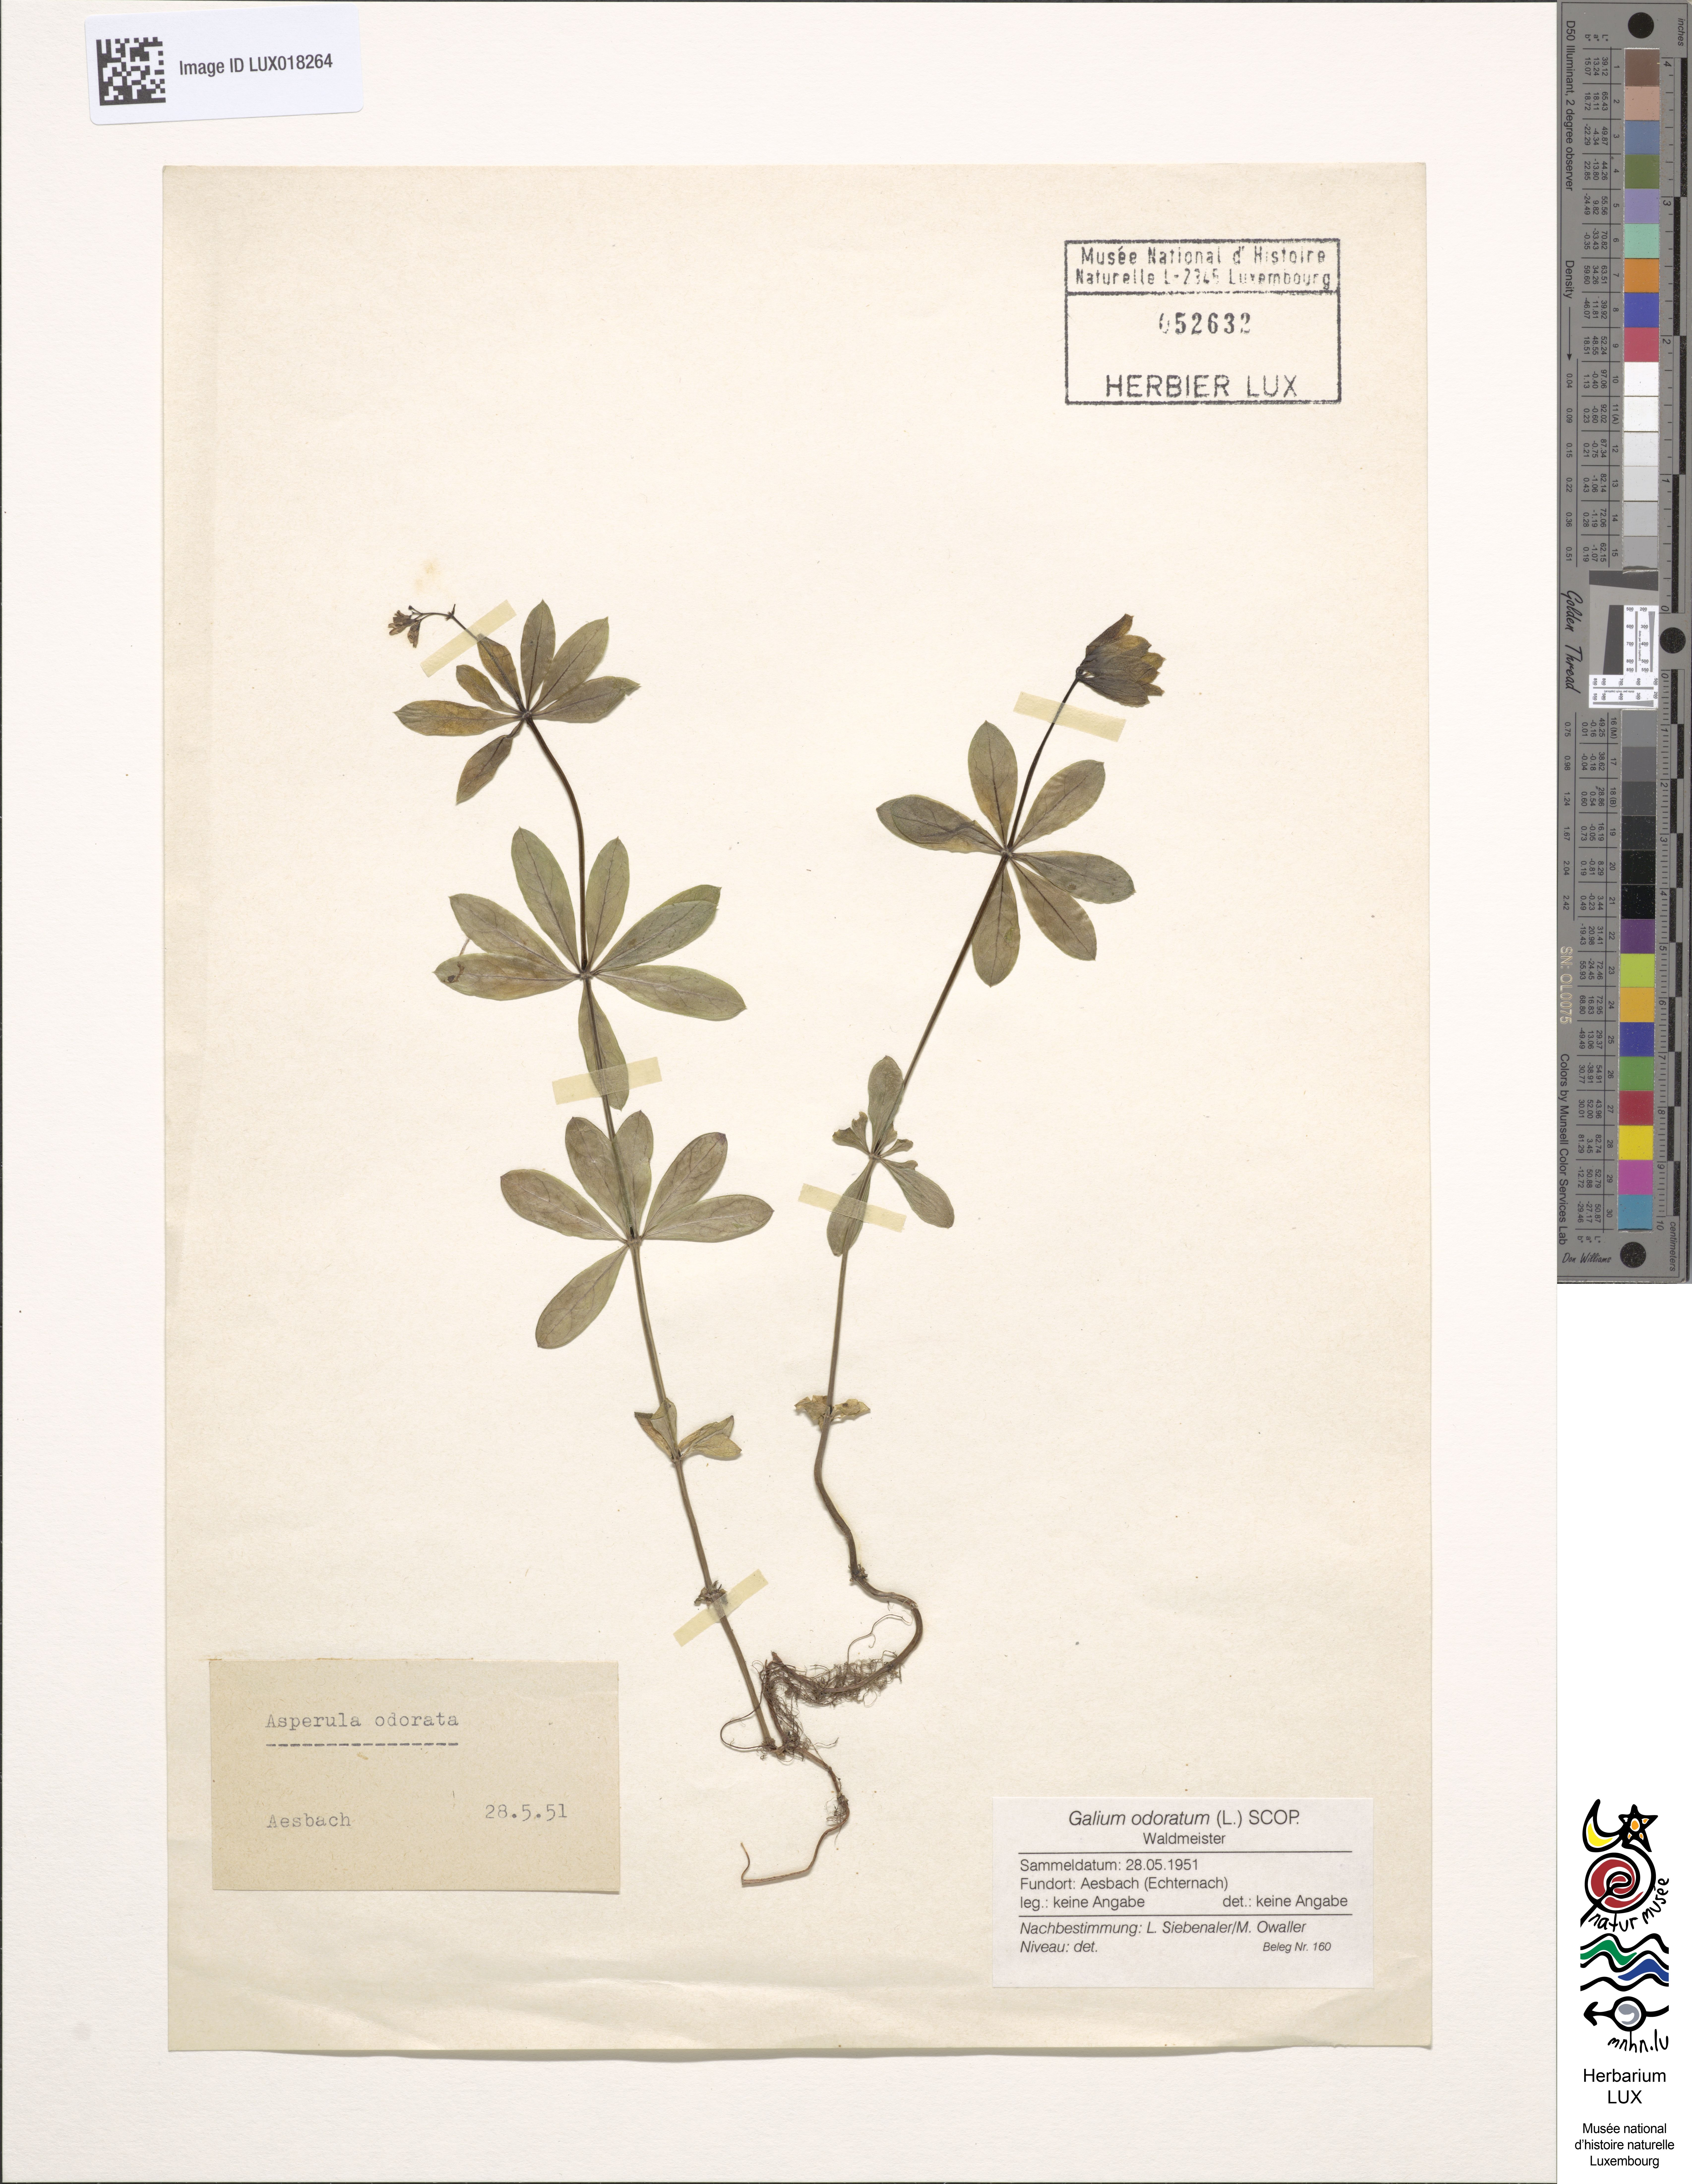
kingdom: Plantae
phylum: Tracheophyta
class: Magnoliopsida
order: Gentianales
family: Rubiaceae
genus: Galium
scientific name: Galium odoratum
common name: Sweet woodruff
